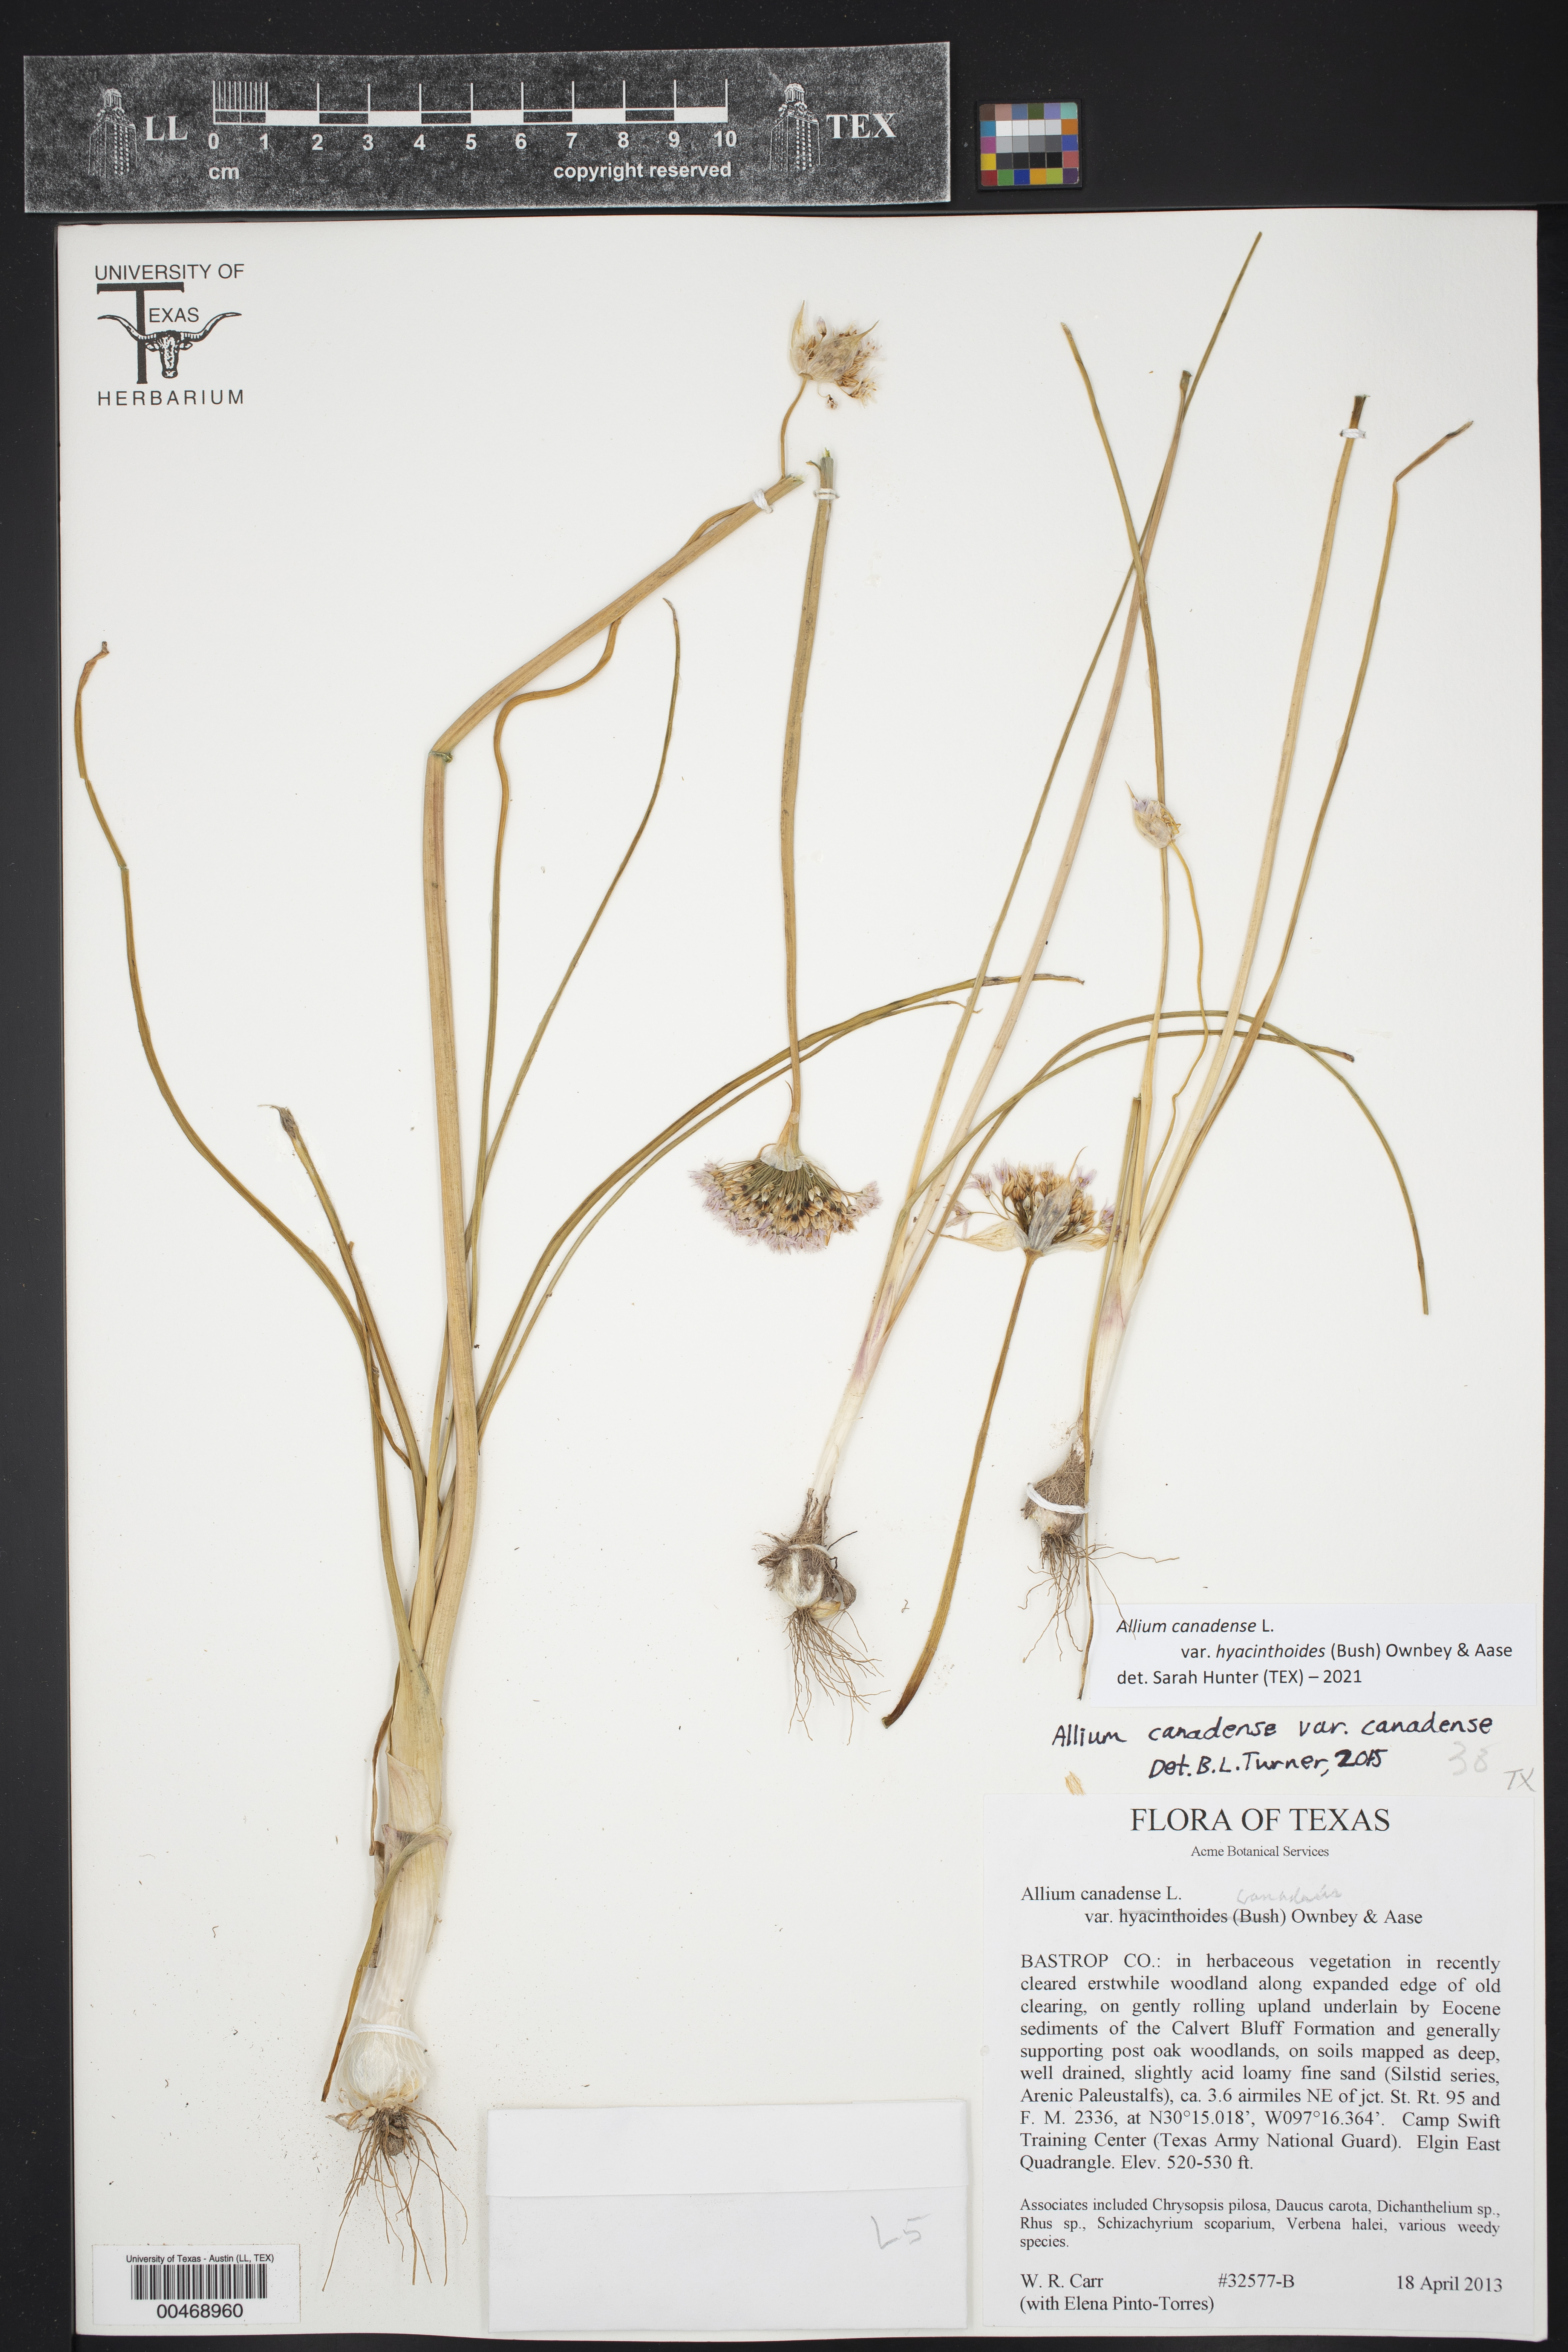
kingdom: Plantae
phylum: Tracheophyta
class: Liliopsida
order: Asparagales
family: Amaryllidaceae
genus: Allium
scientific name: Allium canadense
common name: Meadow garlic
